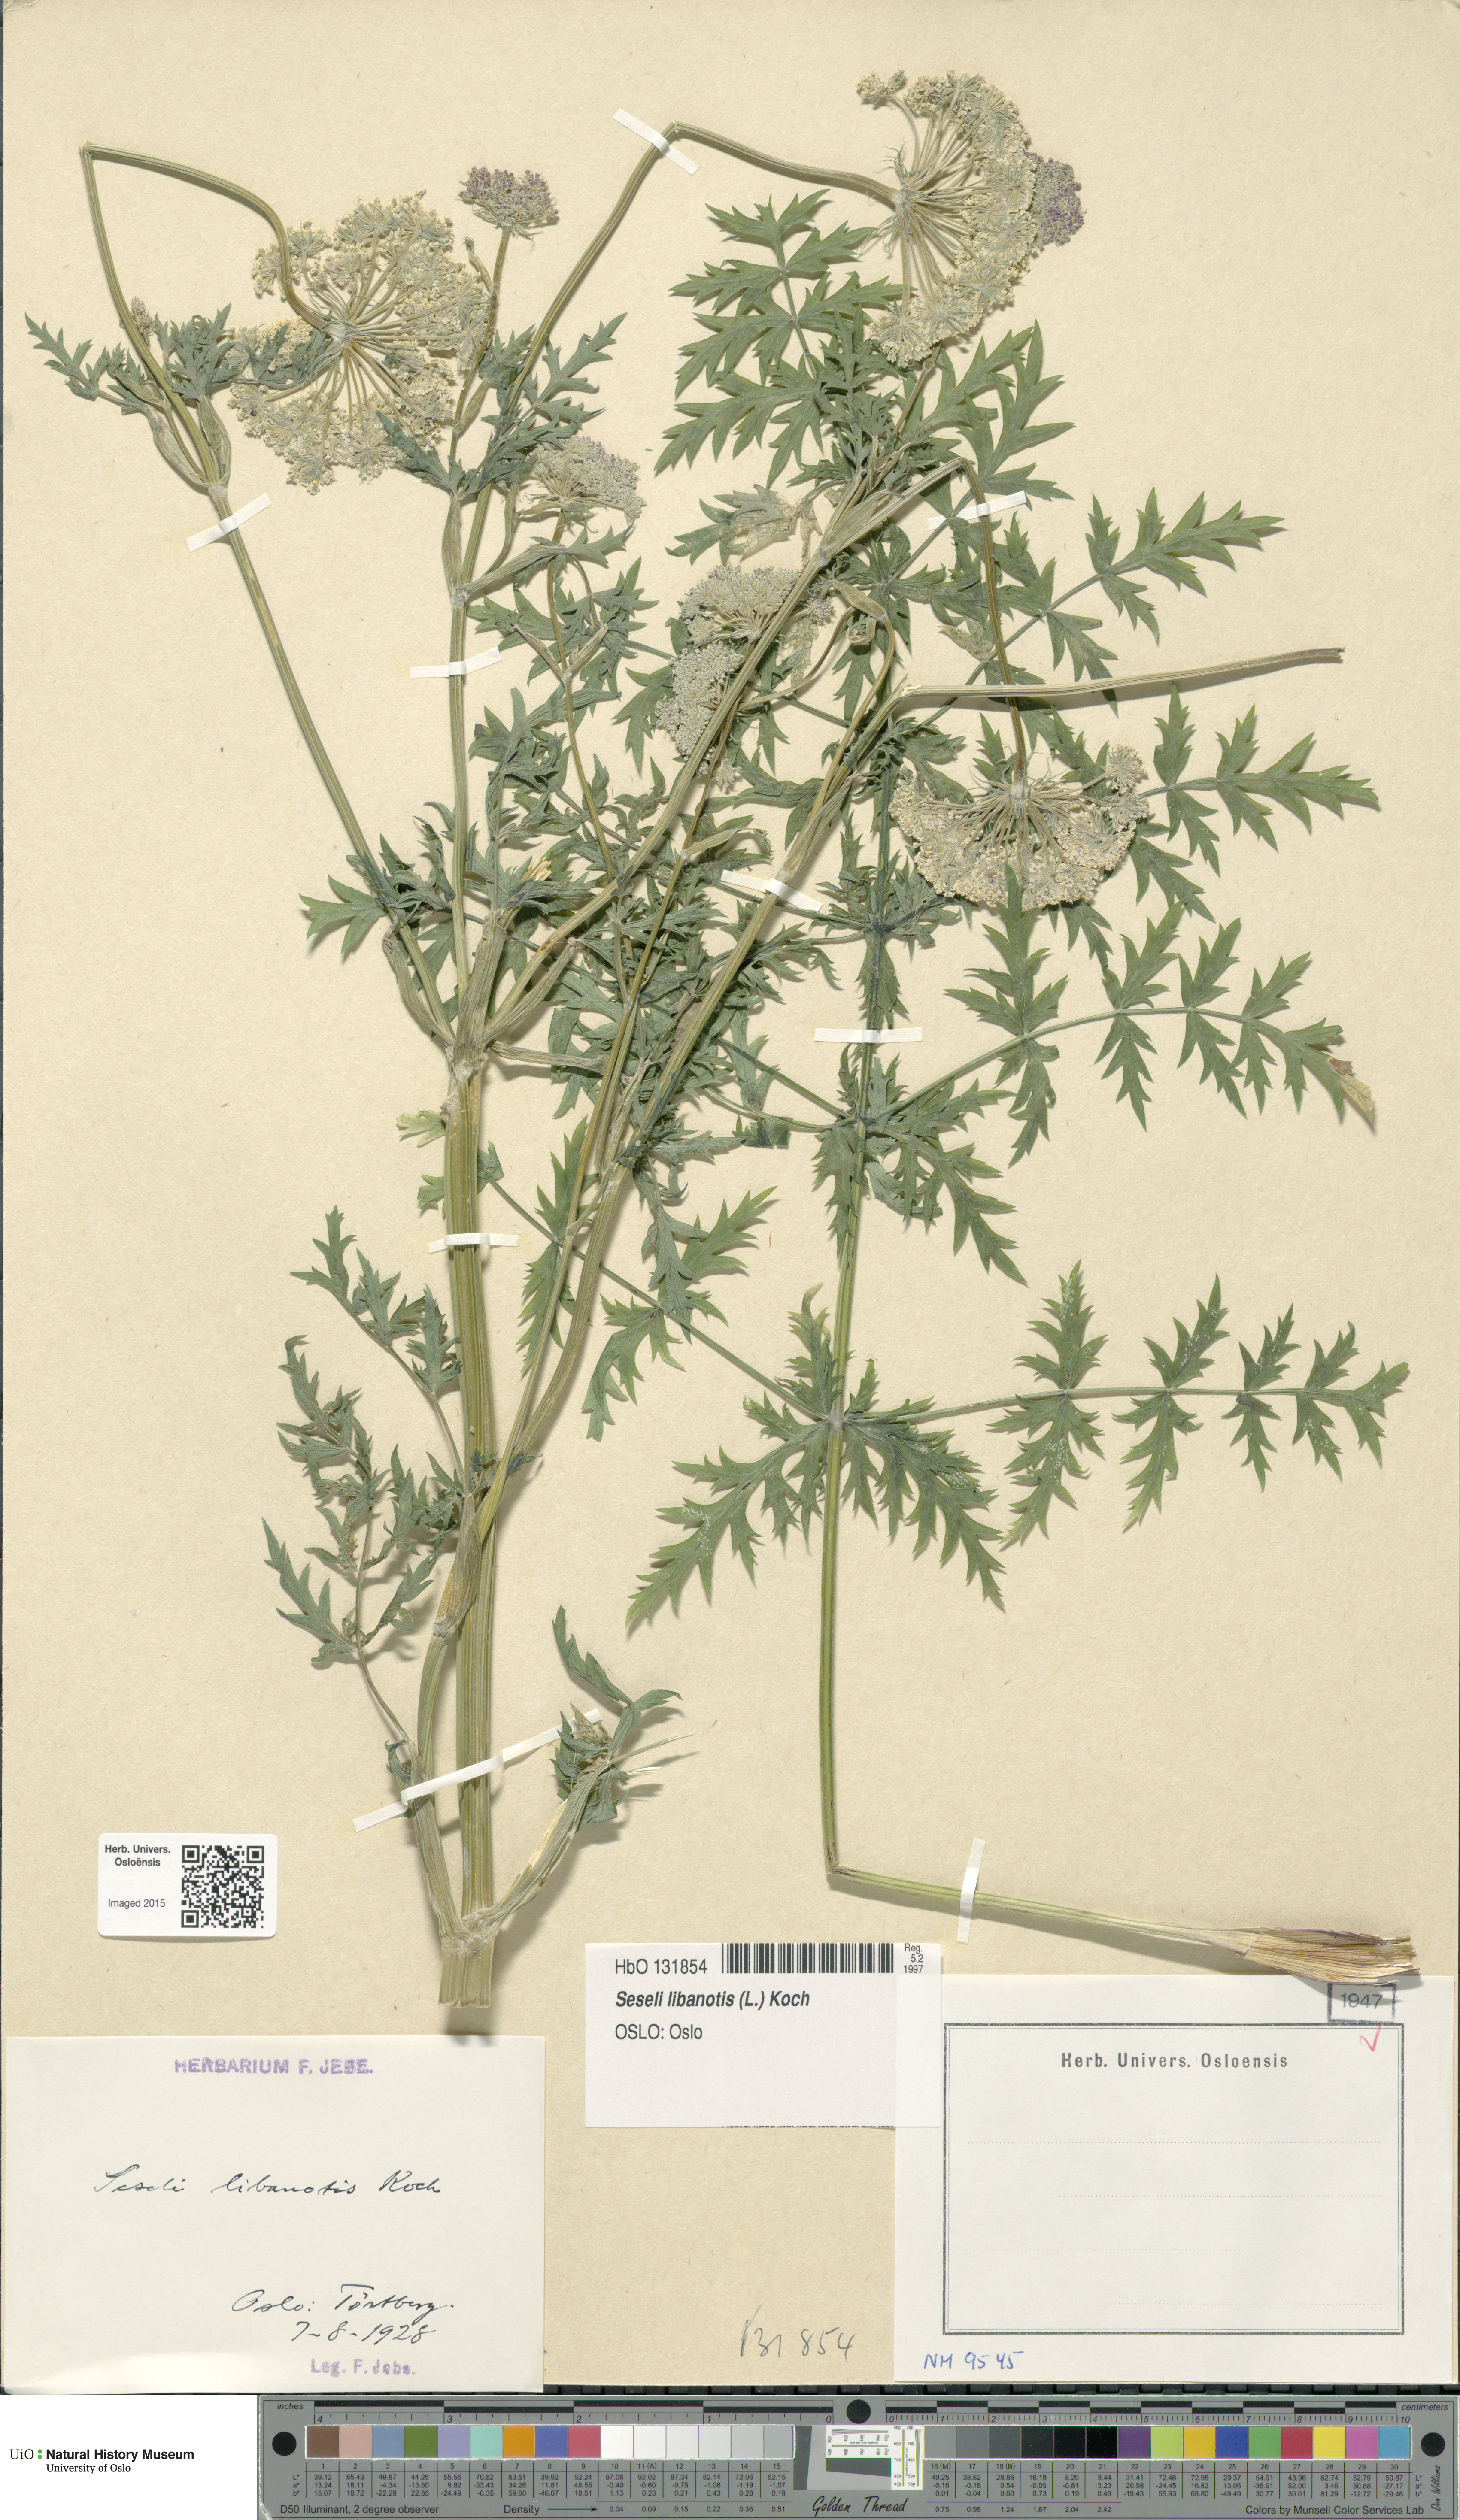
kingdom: Plantae
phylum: Tracheophyta
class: Magnoliopsida
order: Apiales
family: Apiaceae
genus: Seseli
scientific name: Seseli libanotis
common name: Mooncarrot
